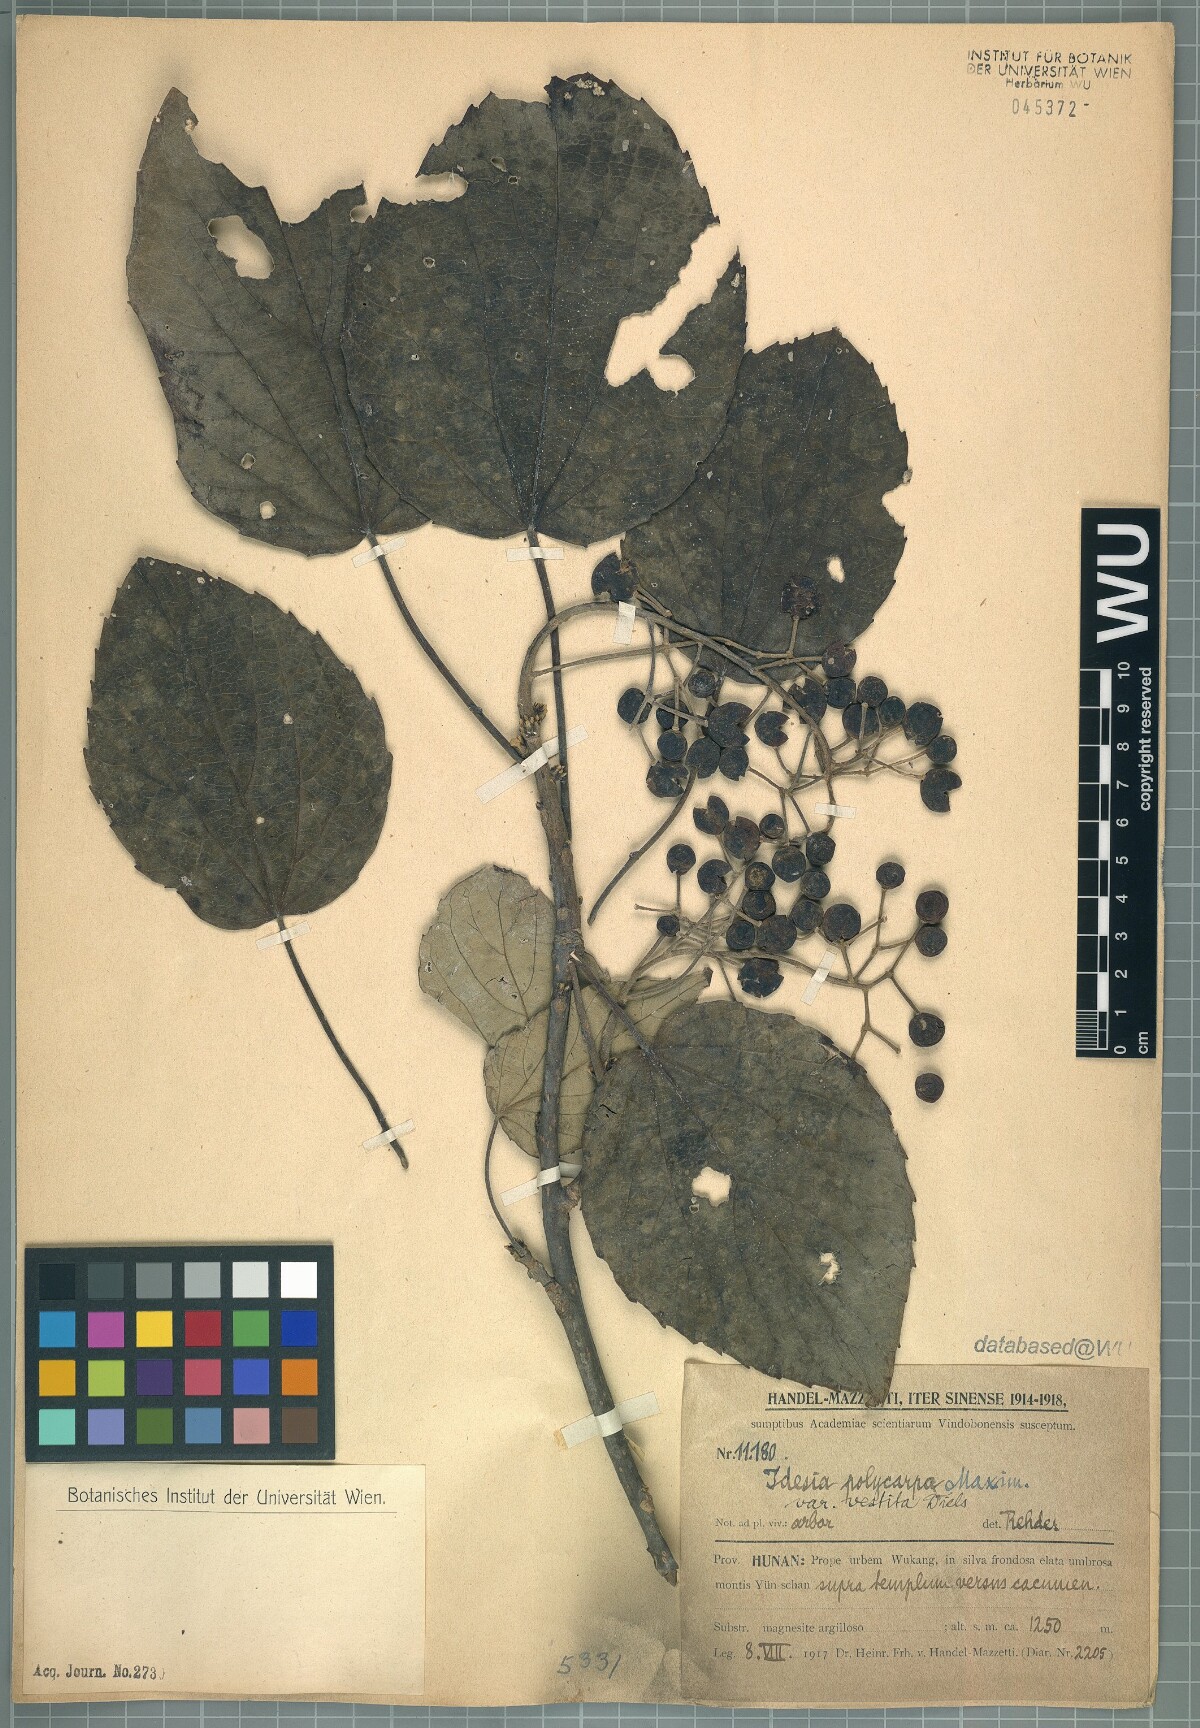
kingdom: Plantae
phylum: Tracheophyta
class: Magnoliopsida
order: Malpighiales
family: Salicaceae
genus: Idesia
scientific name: Idesia polycarpa
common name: Idesia tree
